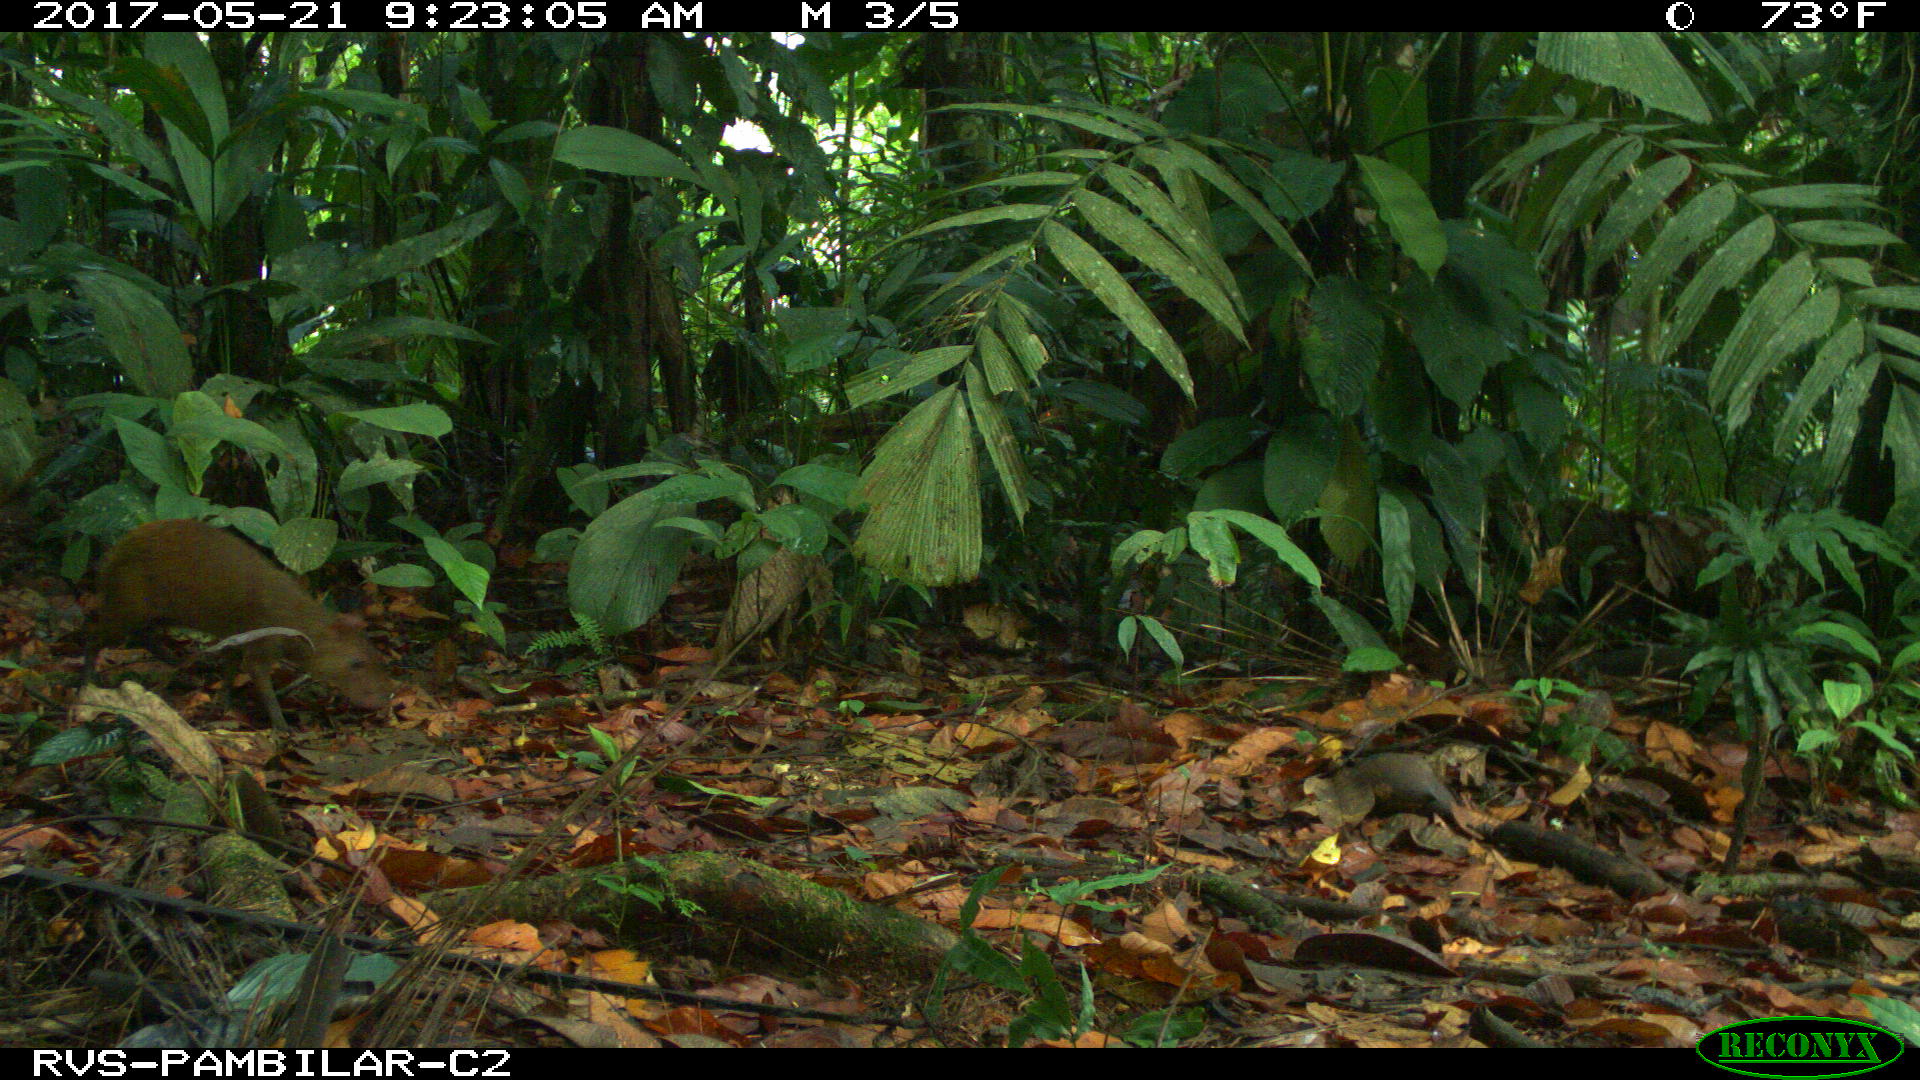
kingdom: Animalia
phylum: Chordata
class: Mammalia
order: Rodentia
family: Dasyproctidae
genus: Dasyprocta
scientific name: Dasyprocta punctata
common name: Central american agouti
